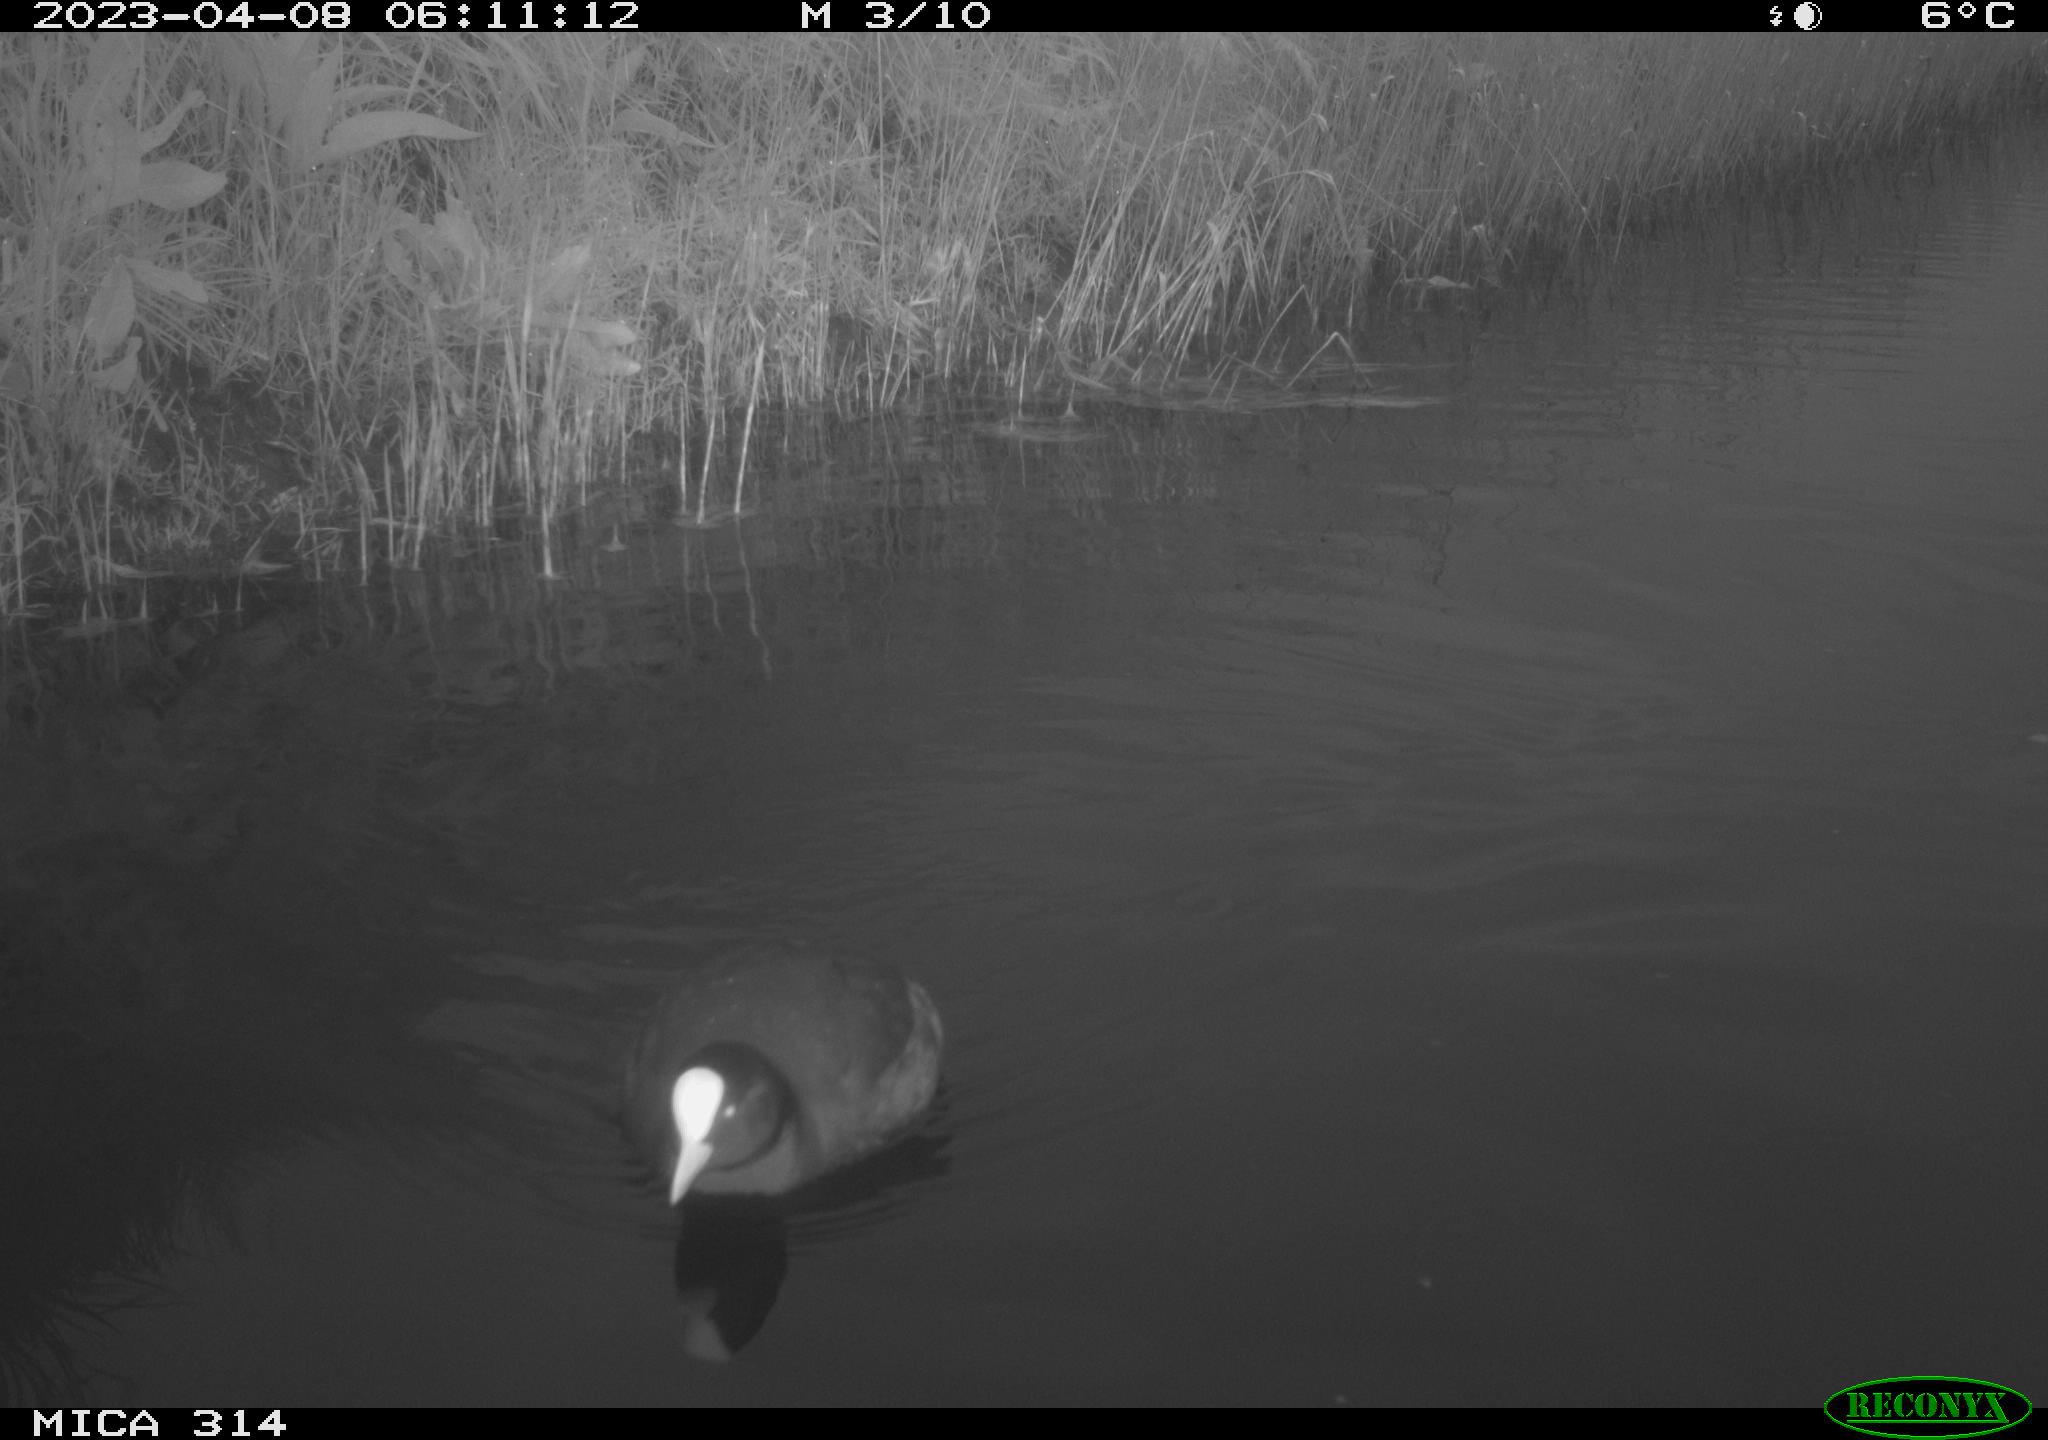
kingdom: Animalia
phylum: Chordata
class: Aves
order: Gruiformes
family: Rallidae
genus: Fulica
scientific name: Fulica atra
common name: Eurasian coot
